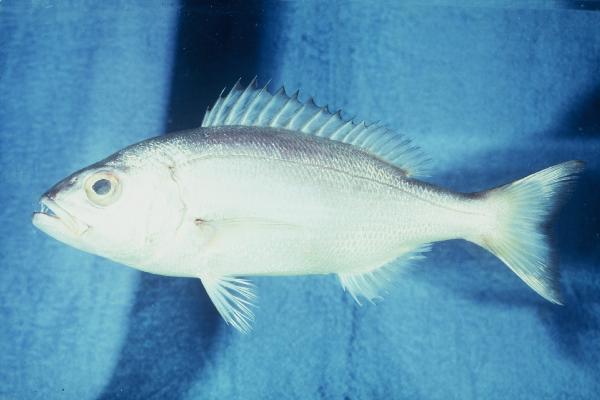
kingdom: Animalia
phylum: Chordata
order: Perciformes
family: Sparidae
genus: Argyrozona
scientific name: Argyrozona argyrozona
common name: Carpenter
